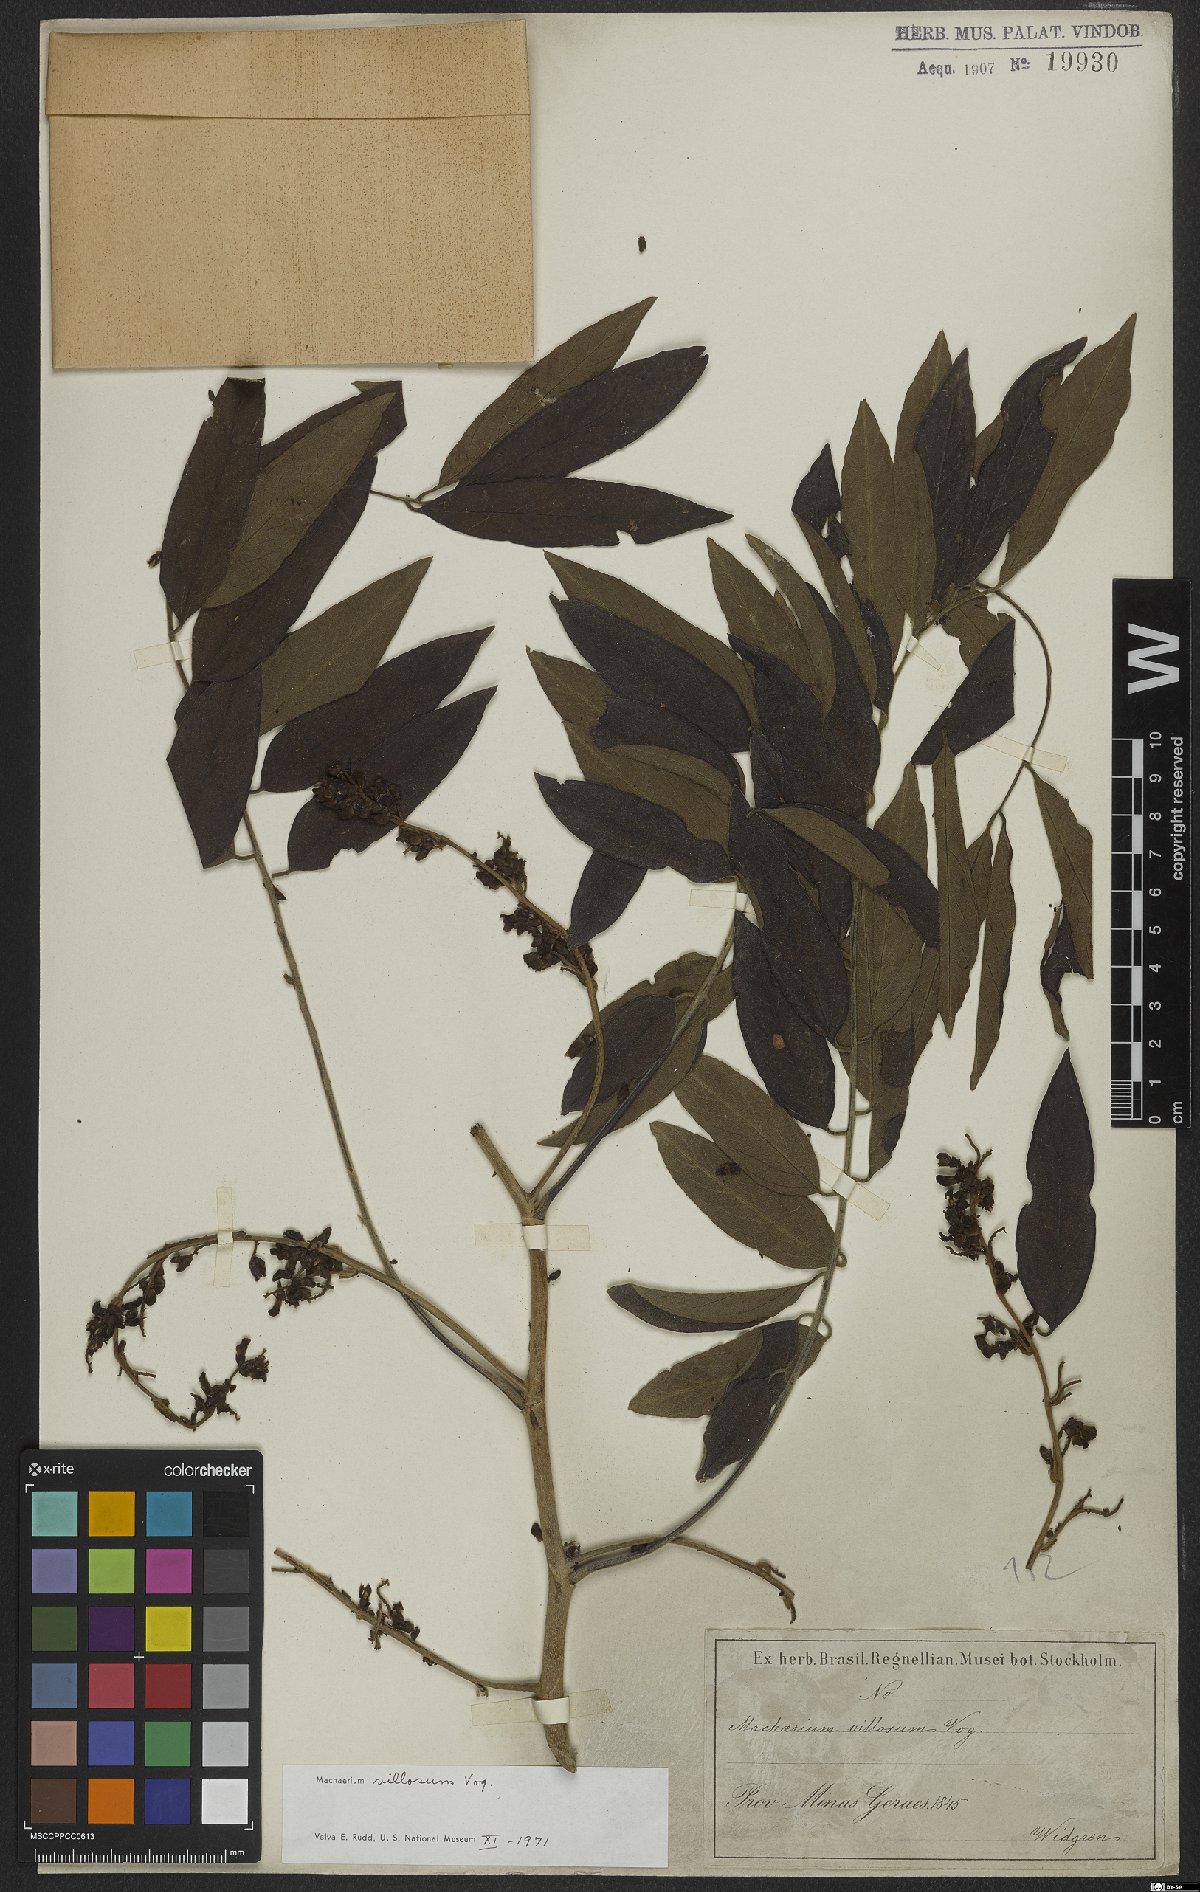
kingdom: Plantae
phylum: Tracheophyta
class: Magnoliopsida
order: Fabales
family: Fabaceae
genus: Machaerium
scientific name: Machaerium villosum
